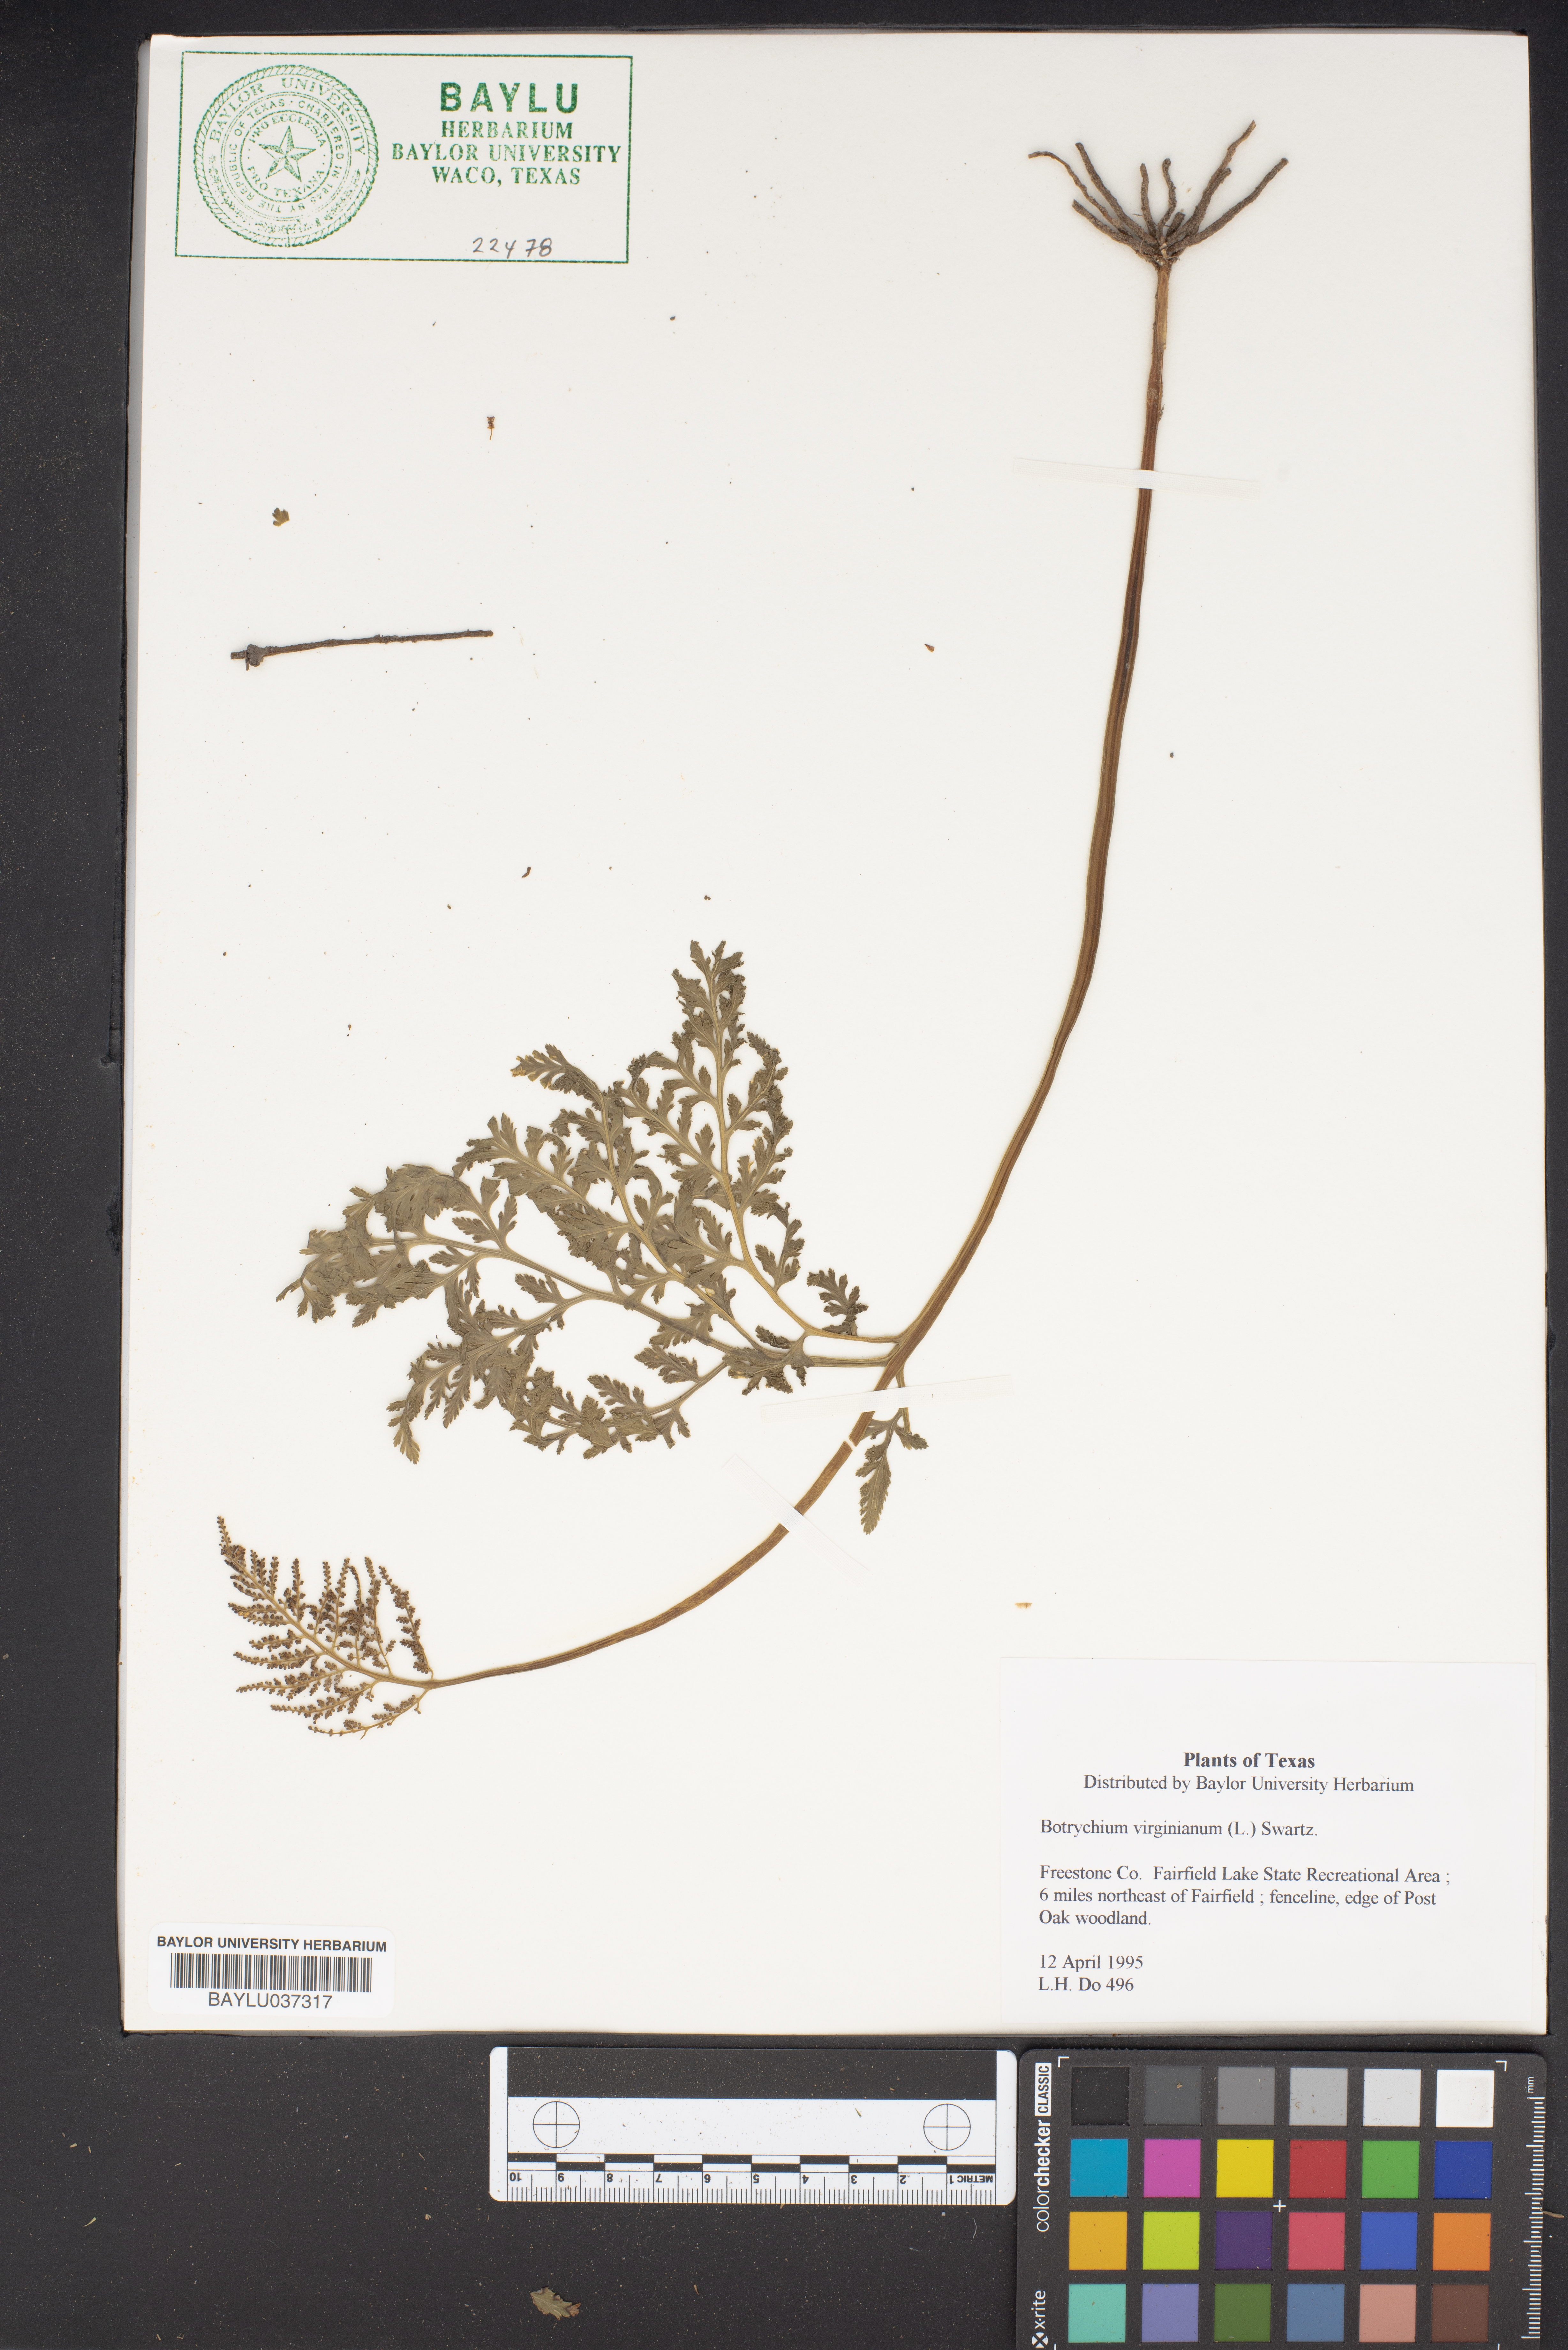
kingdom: Plantae
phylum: Tracheophyta
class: Polypodiopsida
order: Ophioglossales
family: Ophioglossaceae
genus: Botrypus
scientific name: Botrypus virginianus
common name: Common grapefern
